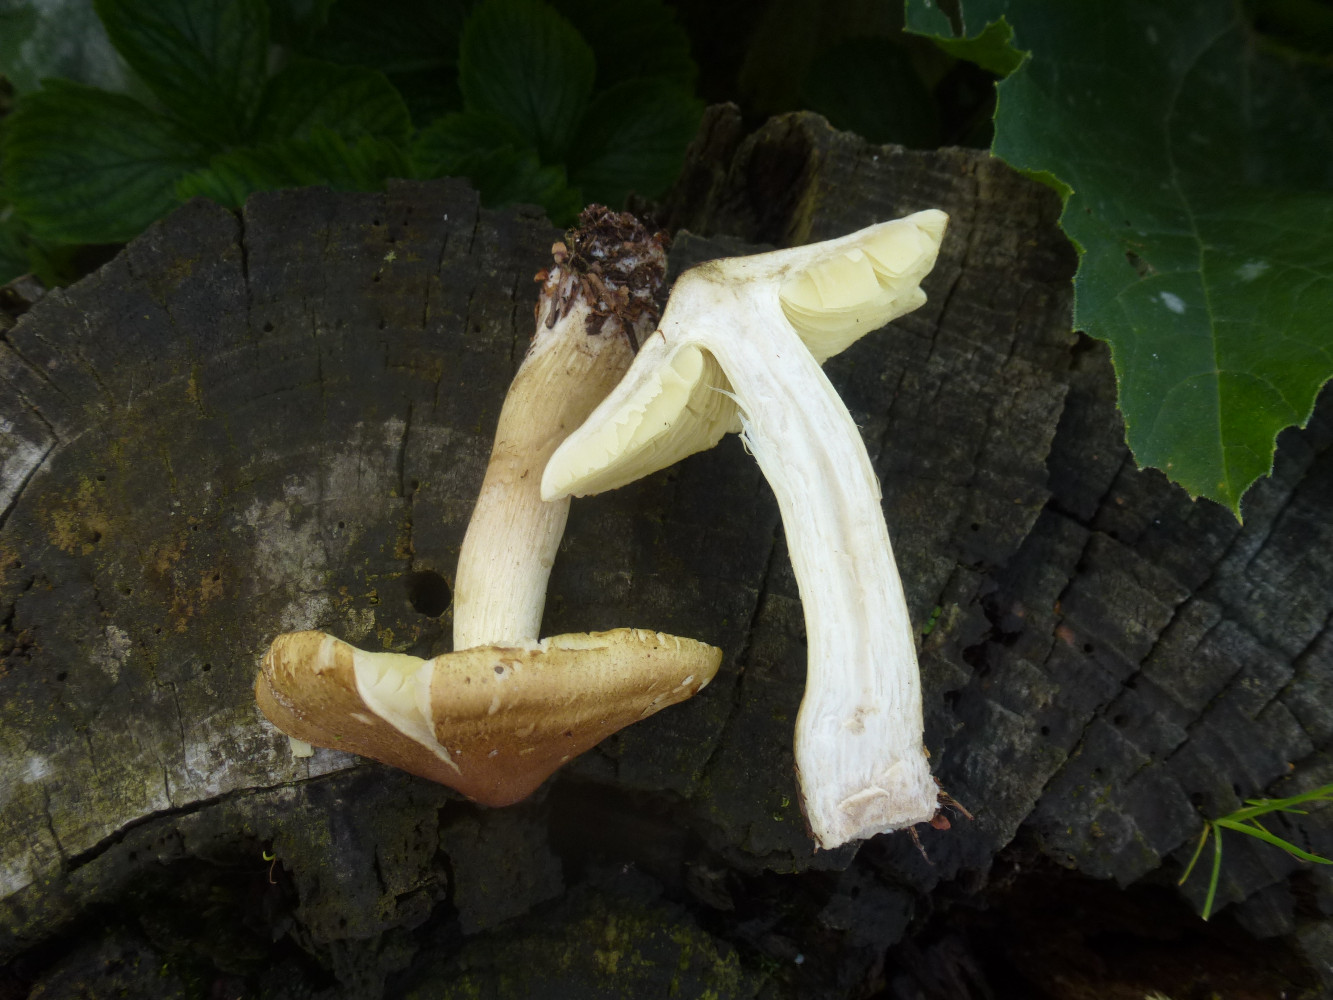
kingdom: Fungi
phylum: Basidiomycota
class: Agaricomycetes
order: Agaricales
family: Tricholomataceae
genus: Tricholoma
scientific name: Tricholoma aestuans
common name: kegle-ridderhat
